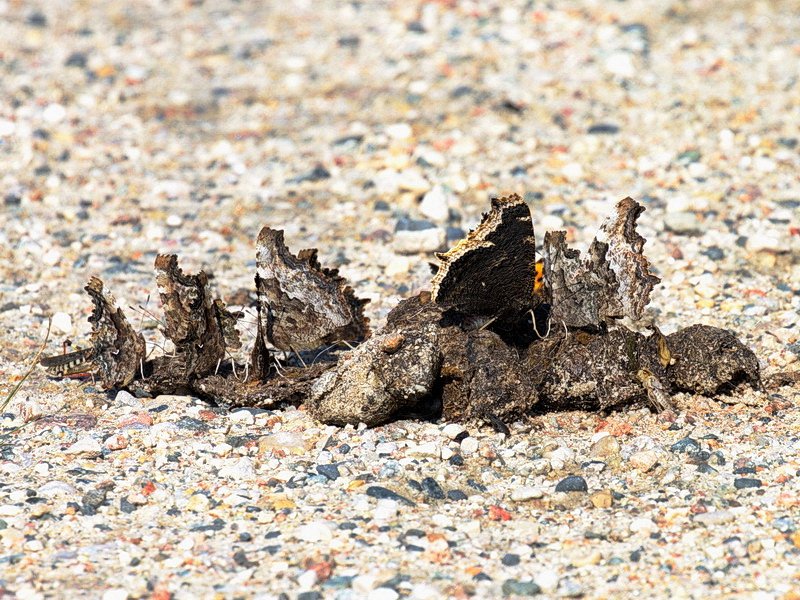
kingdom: Animalia
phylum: Arthropoda
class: Insecta
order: Lepidoptera
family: Nymphalidae
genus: Nymphalis
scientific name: Nymphalis antiopa
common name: Mourning Cloak
